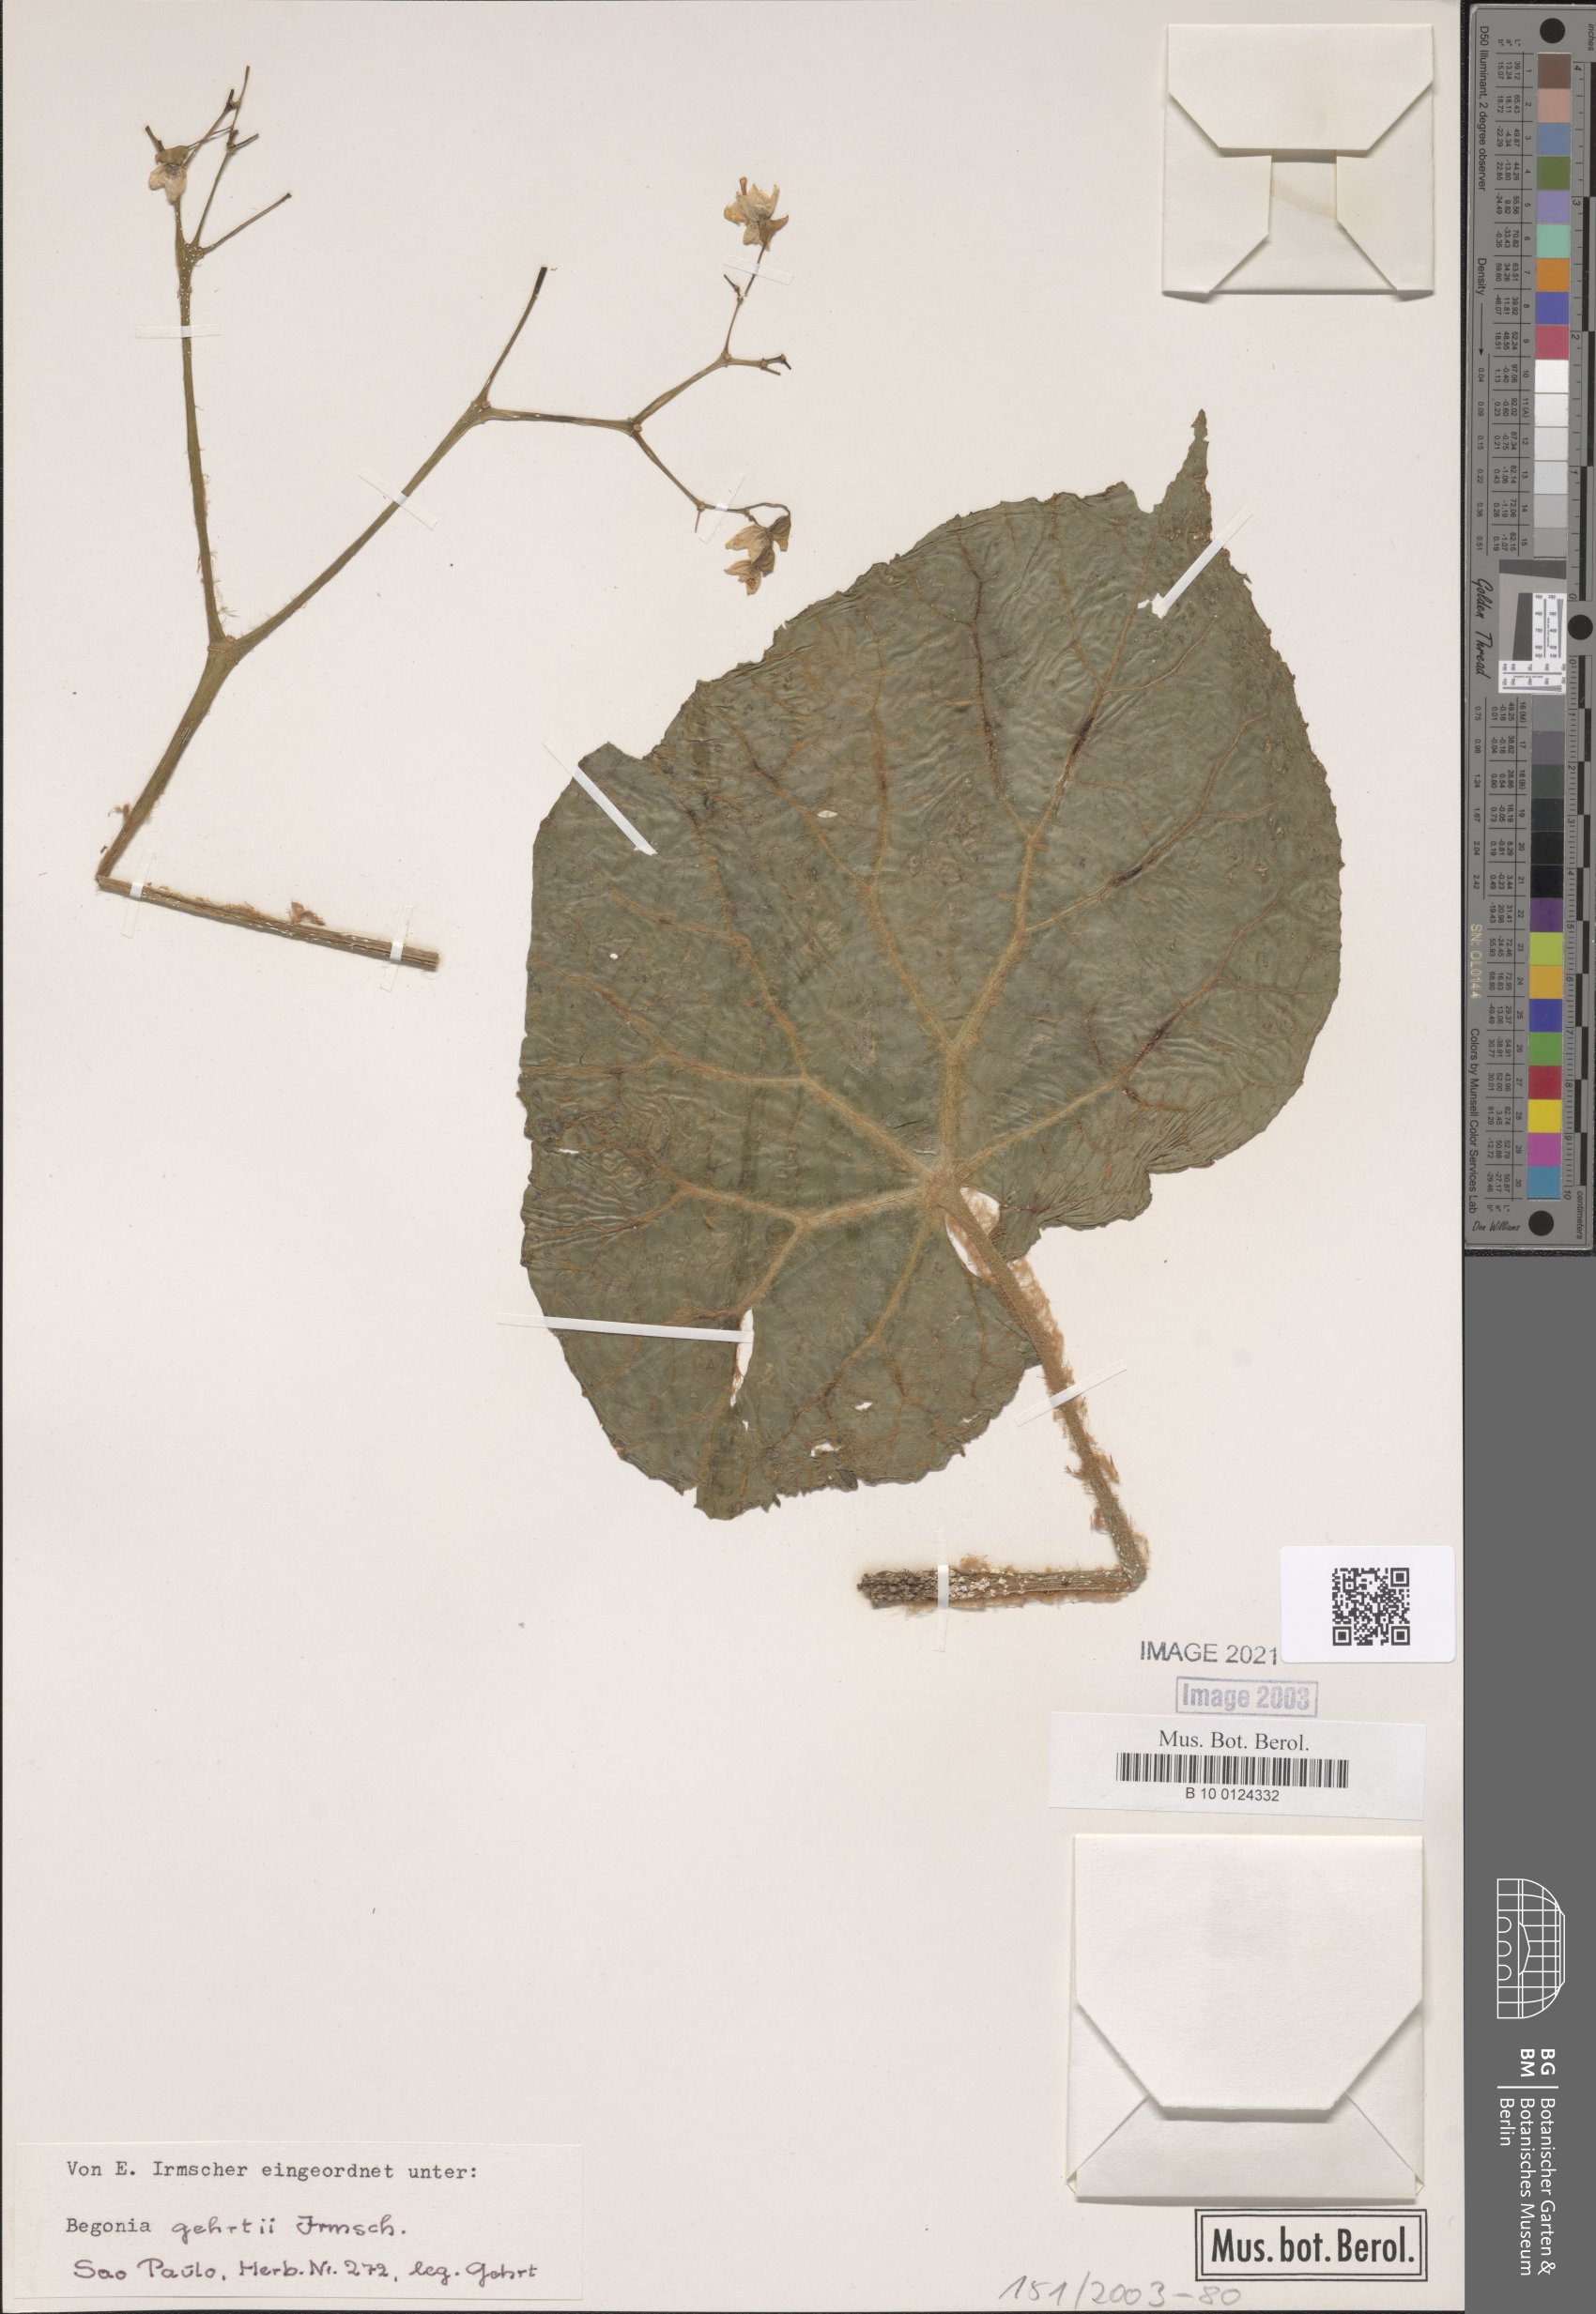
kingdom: Plantae
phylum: Tracheophyta
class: Magnoliopsida
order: Cucurbitales
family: Begoniaceae
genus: Begonia
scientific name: Begonia gehrtii
